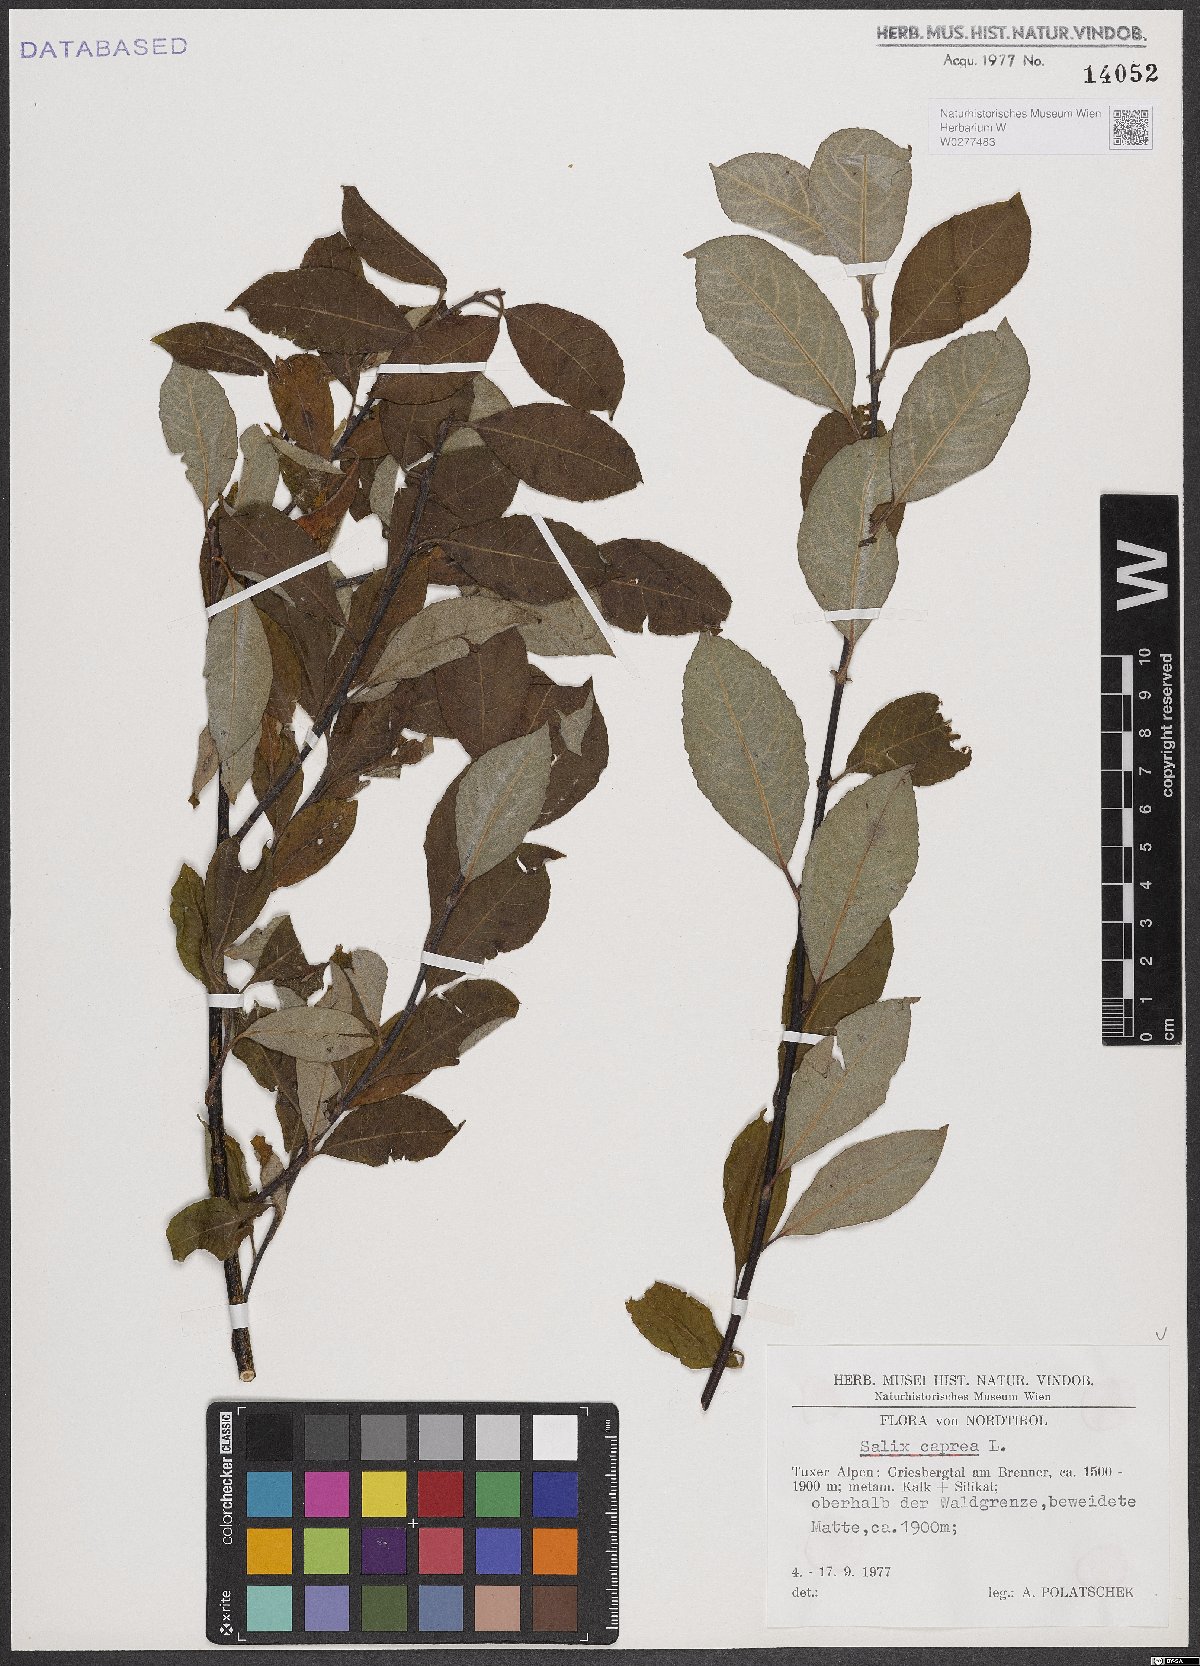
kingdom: Plantae
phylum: Tracheophyta
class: Magnoliopsida
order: Malpighiales
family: Salicaceae
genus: Salix
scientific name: Salix caprea
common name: Goat willow
